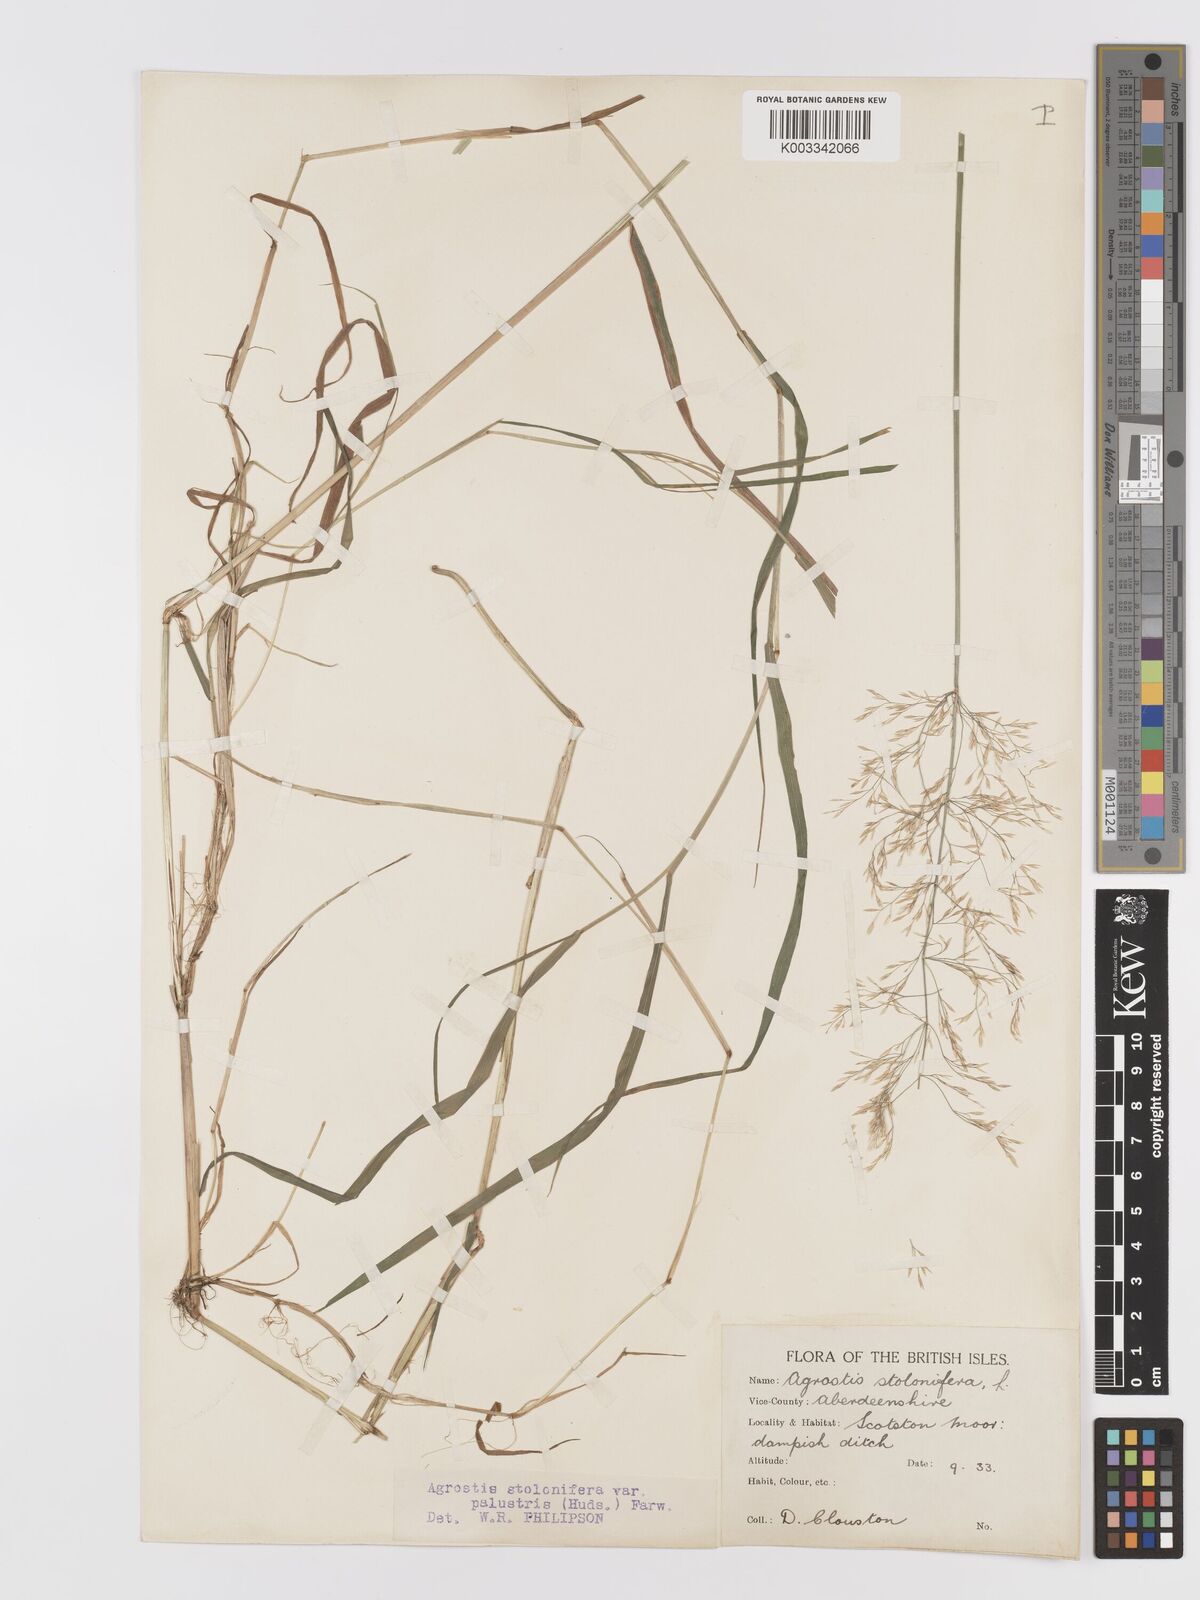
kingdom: Plantae
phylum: Tracheophyta
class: Liliopsida
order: Poales
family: Poaceae
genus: Agrostis
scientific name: Agrostis stolonifera
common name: Creeping bentgrass
